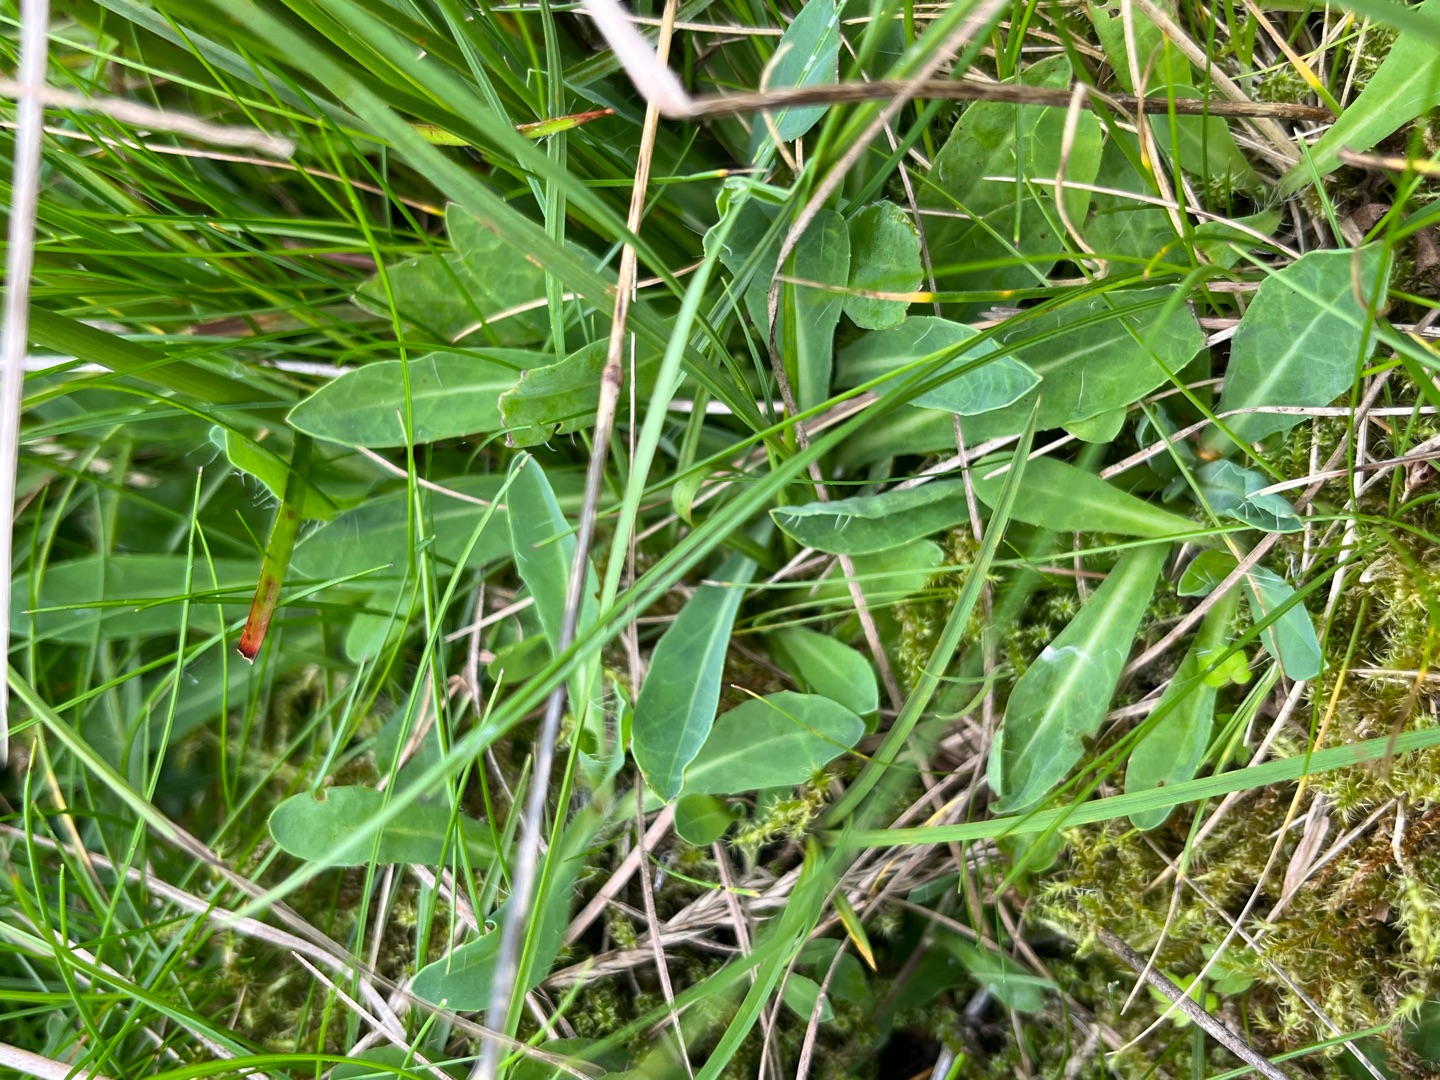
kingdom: Plantae
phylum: Tracheophyta
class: Magnoliopsida
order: Asterales
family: Asteraceae
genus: Pilosella
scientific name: Pilosella lactucella
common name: Lancetbladet høgeurt
